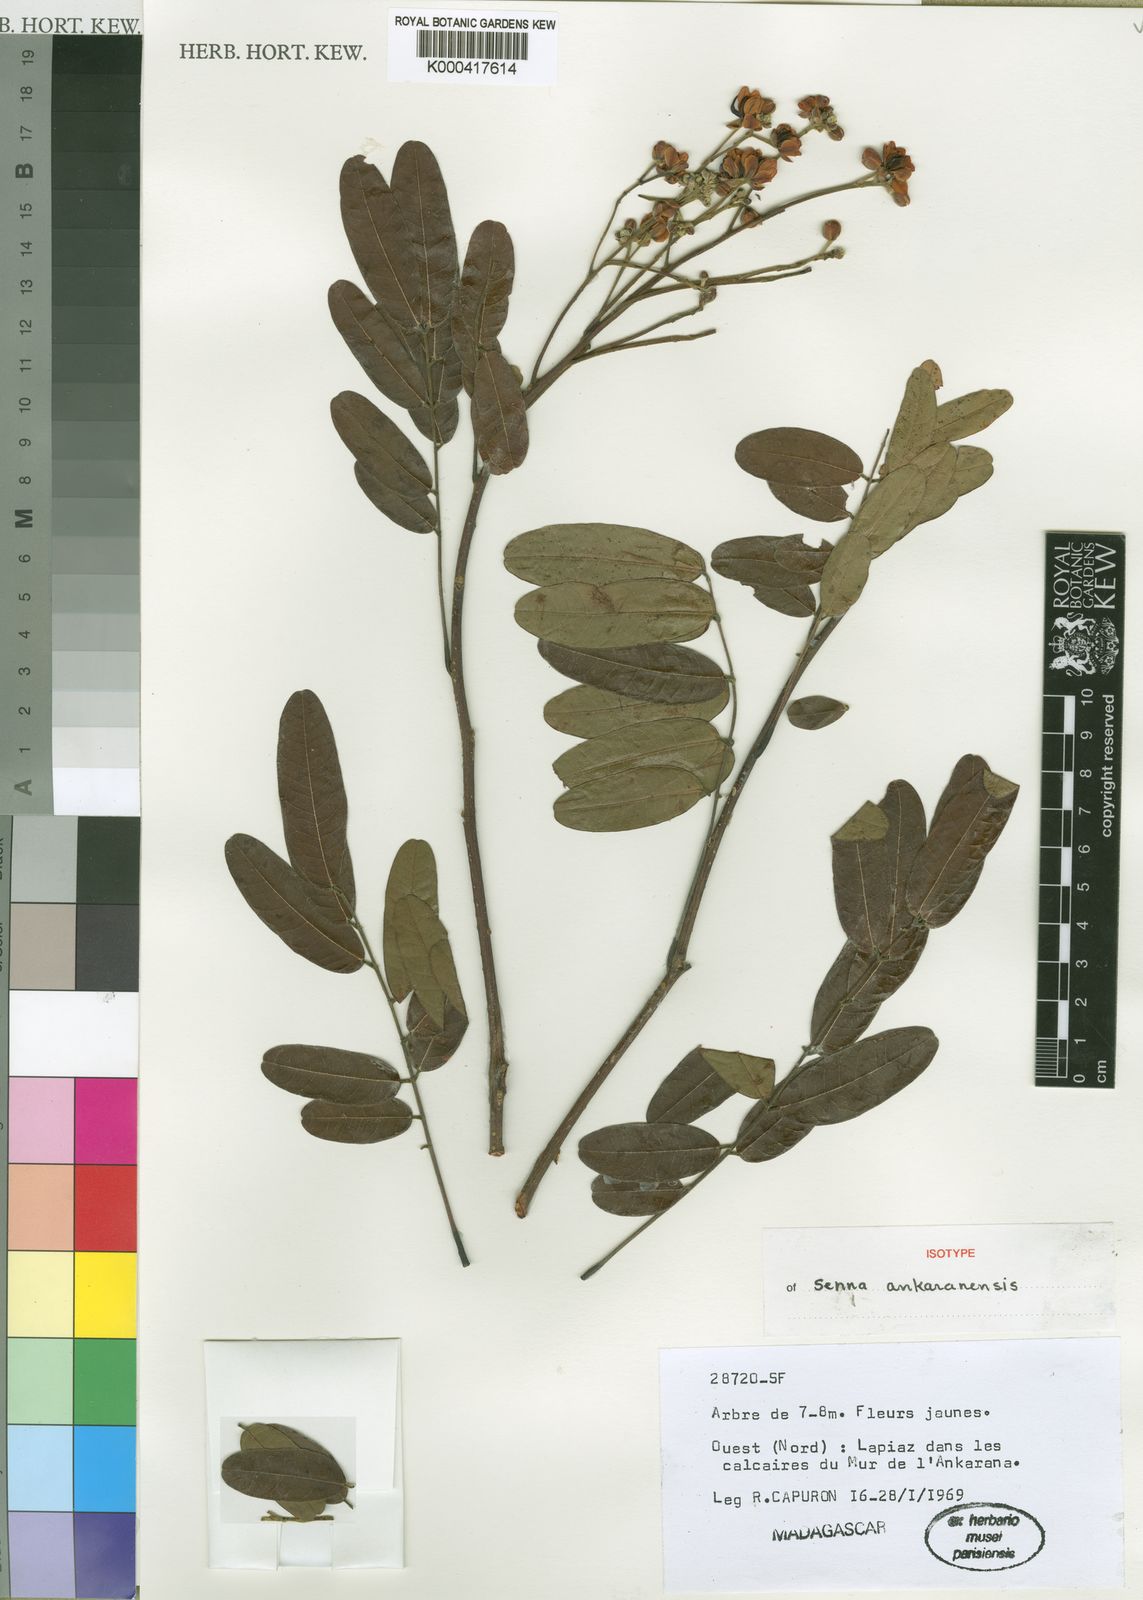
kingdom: Plantae
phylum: Tracheophyta
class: Magnoliopsida
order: Fabales
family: Fabaceae
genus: Senna
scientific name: Senna ankaranensis
